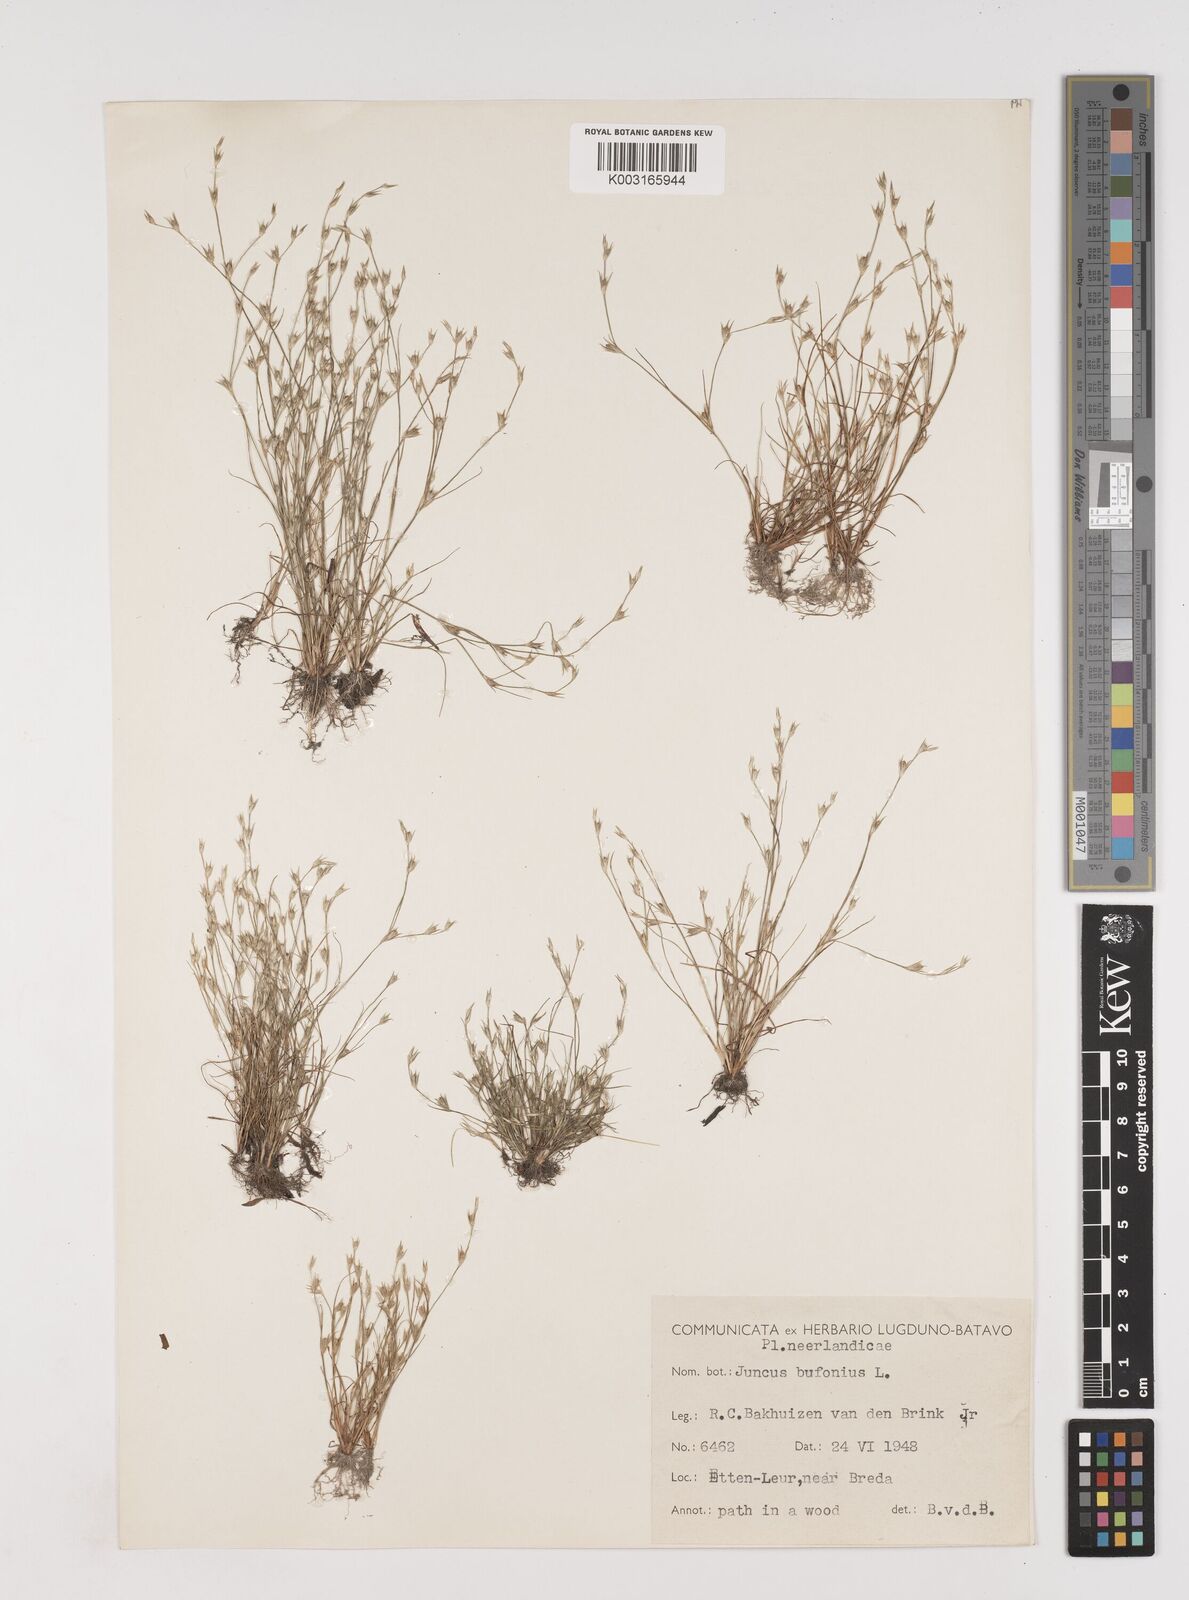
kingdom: Plantae
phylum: Tracheophyta
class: Liliopsida
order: Poales
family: Juncaceae
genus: Juncus
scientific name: Juncus bufonius
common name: Toad rush
